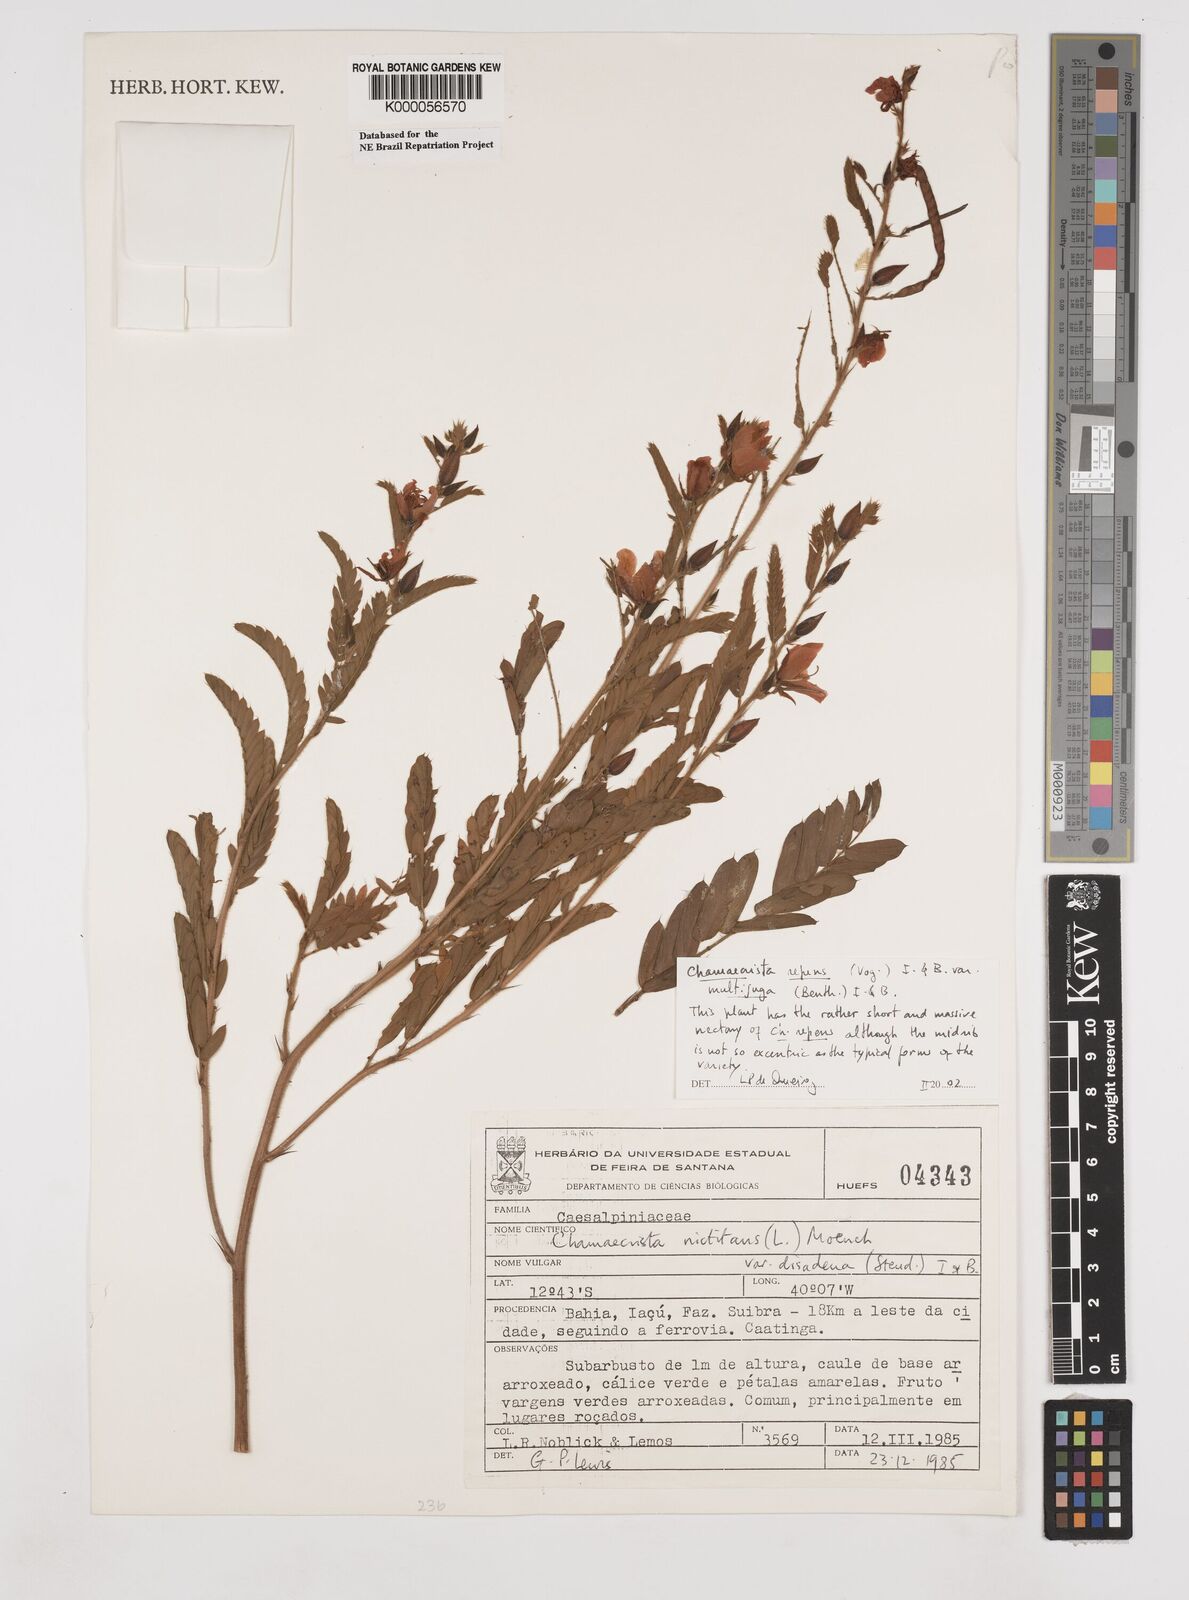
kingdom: Plantae
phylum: Tracheophyta
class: Magnoliopsida
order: Fabales
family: Fabaceae
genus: Chamaecrista
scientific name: Chamaecrista repens
